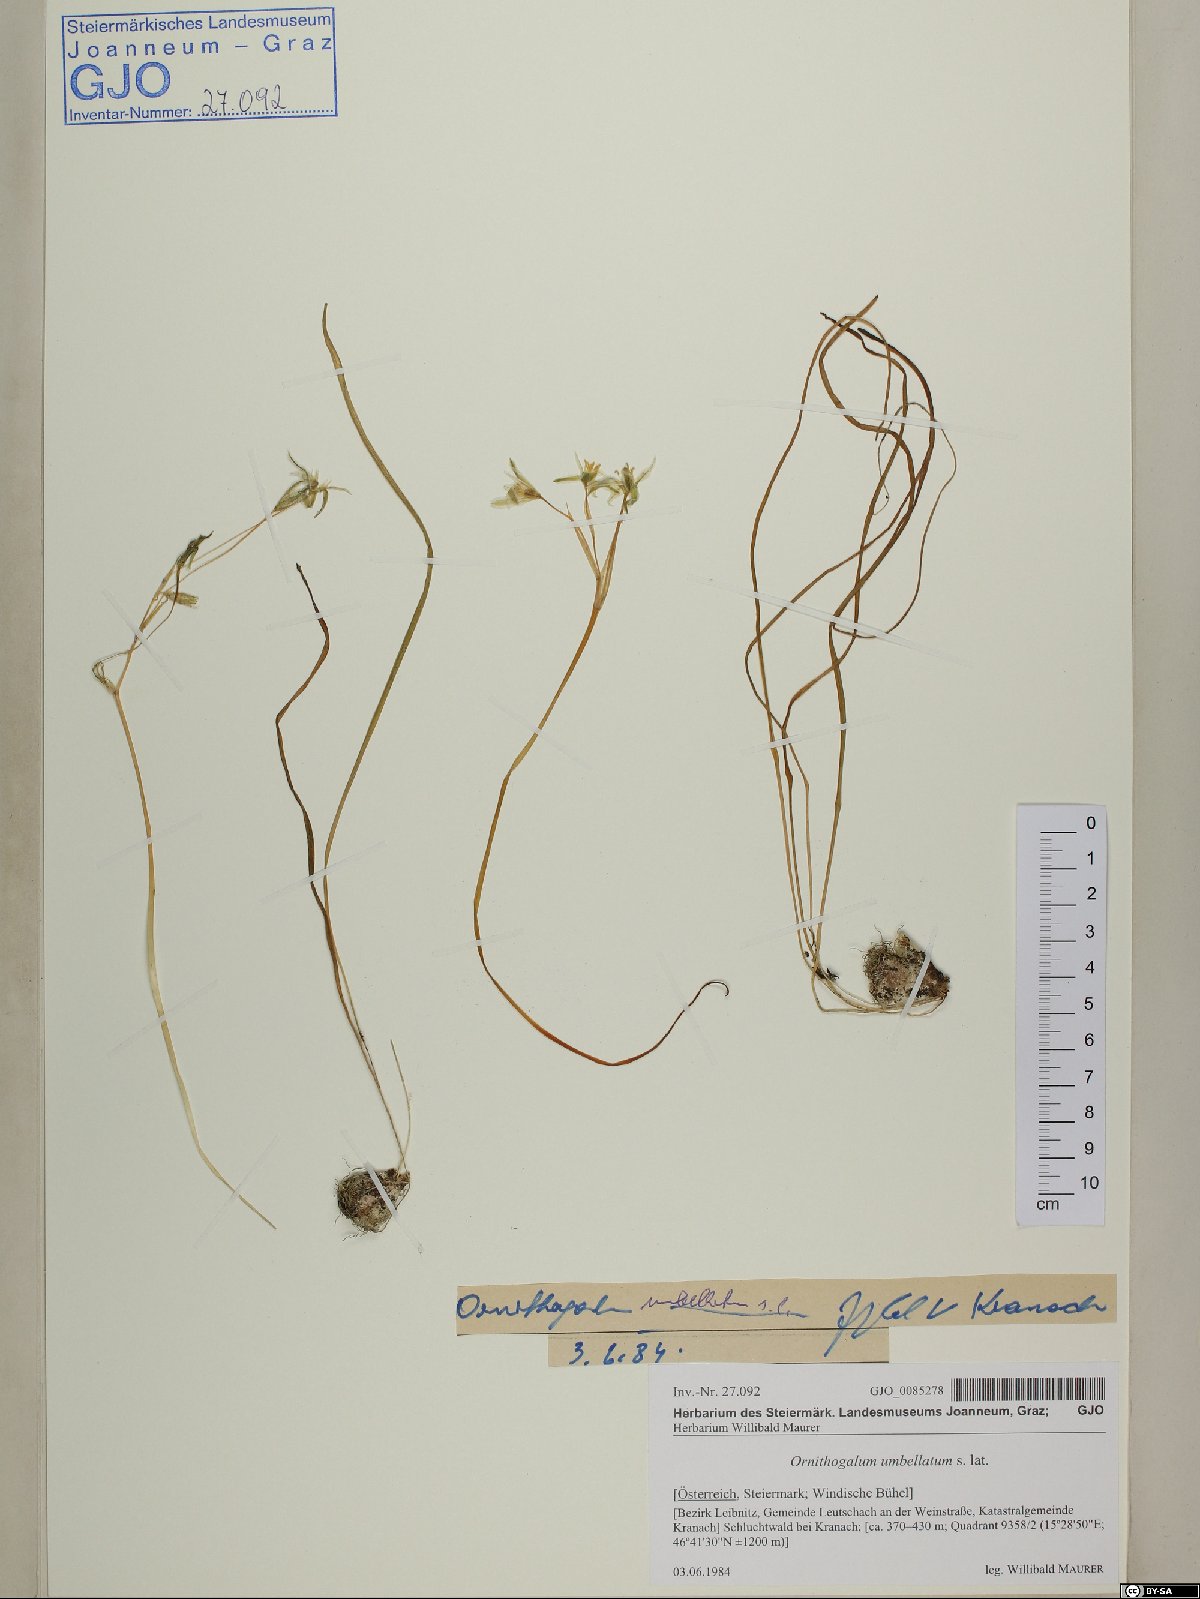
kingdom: Plantae
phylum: Tracheophyta
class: Liliopsida
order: Asparagales
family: Asparagaceae
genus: Ornithogalum
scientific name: Ornithogalum umbellatum
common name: Garden star-of-bethlehem
